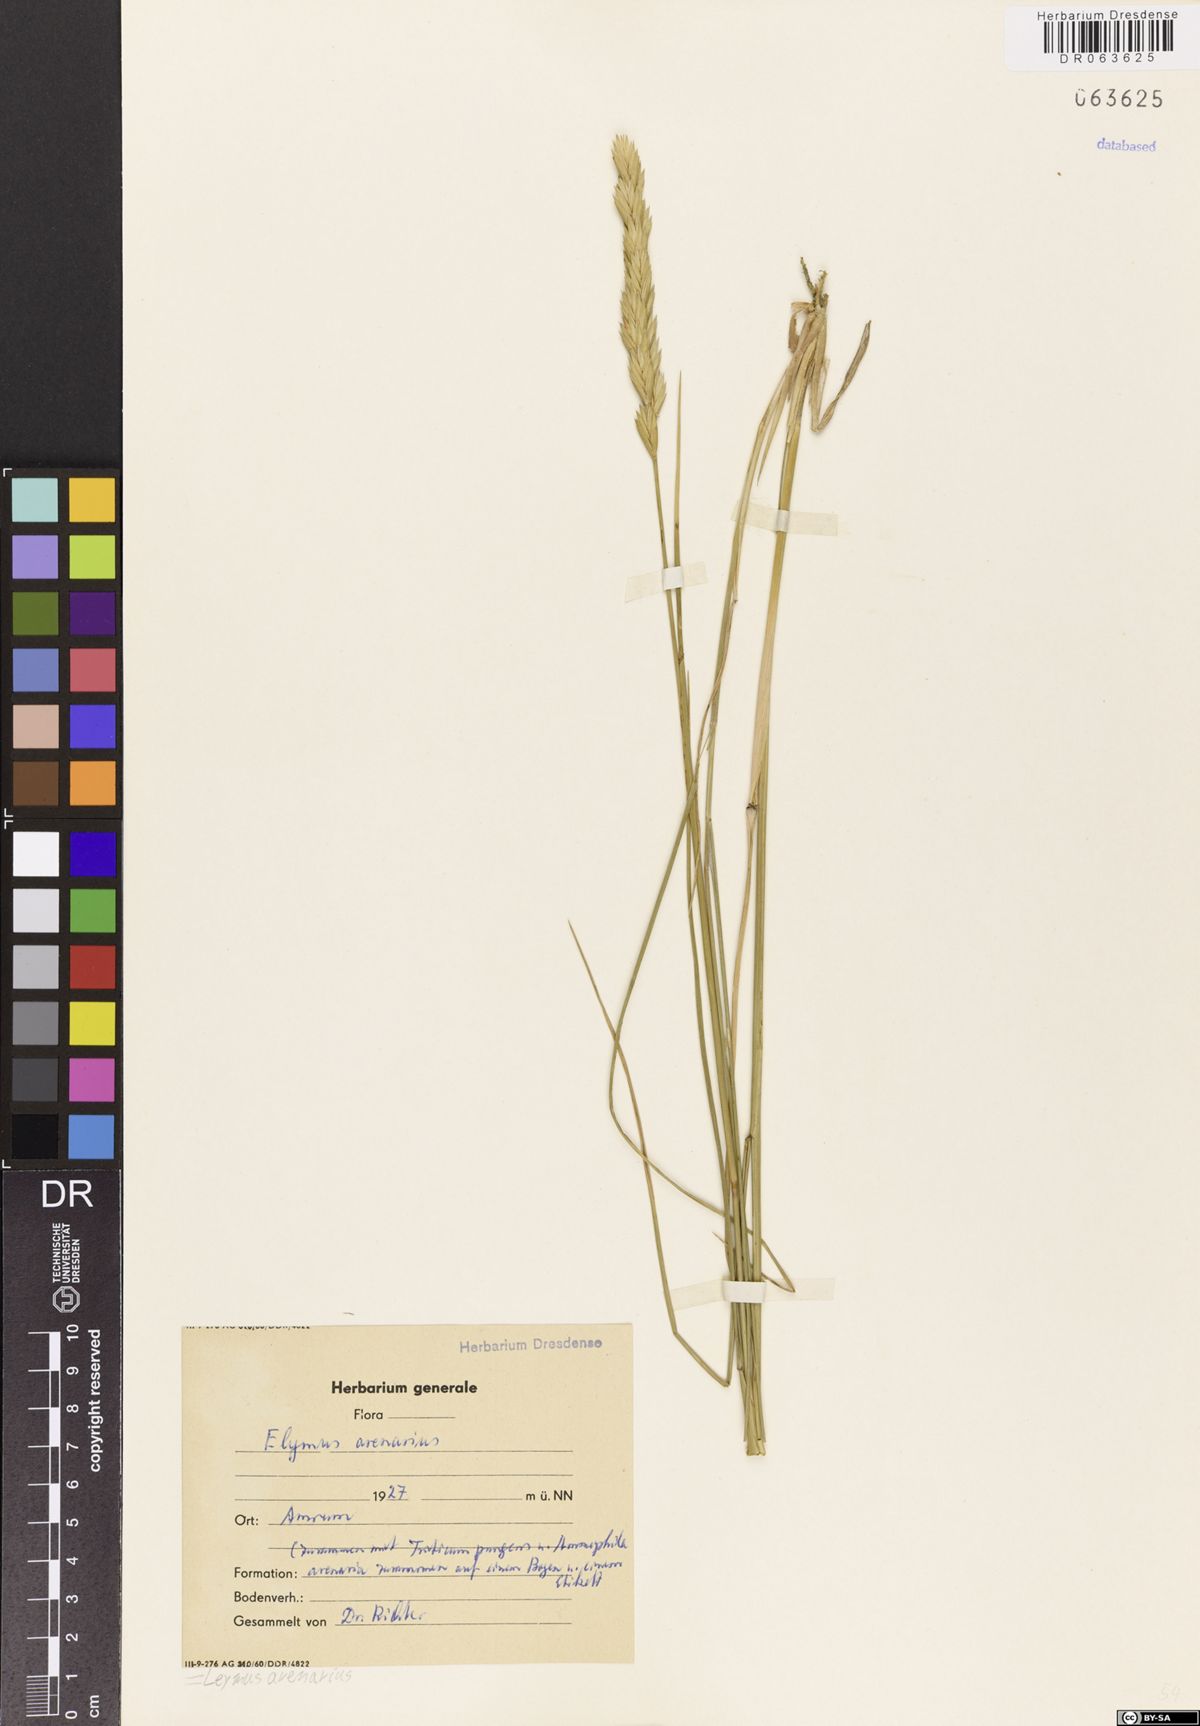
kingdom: Plantae
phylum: Tracheophyta
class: Liliopsida
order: Poales
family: Poaceae
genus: Leymus
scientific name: Leymus arenarius
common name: Lyme-grass
